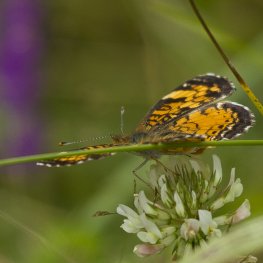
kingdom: Animalia
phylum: Arthropoda
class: Insecta
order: Lepidoptera
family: Nymphalidae
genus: Phyciodes
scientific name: Phyciodes tharos
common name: Northern Crescent
